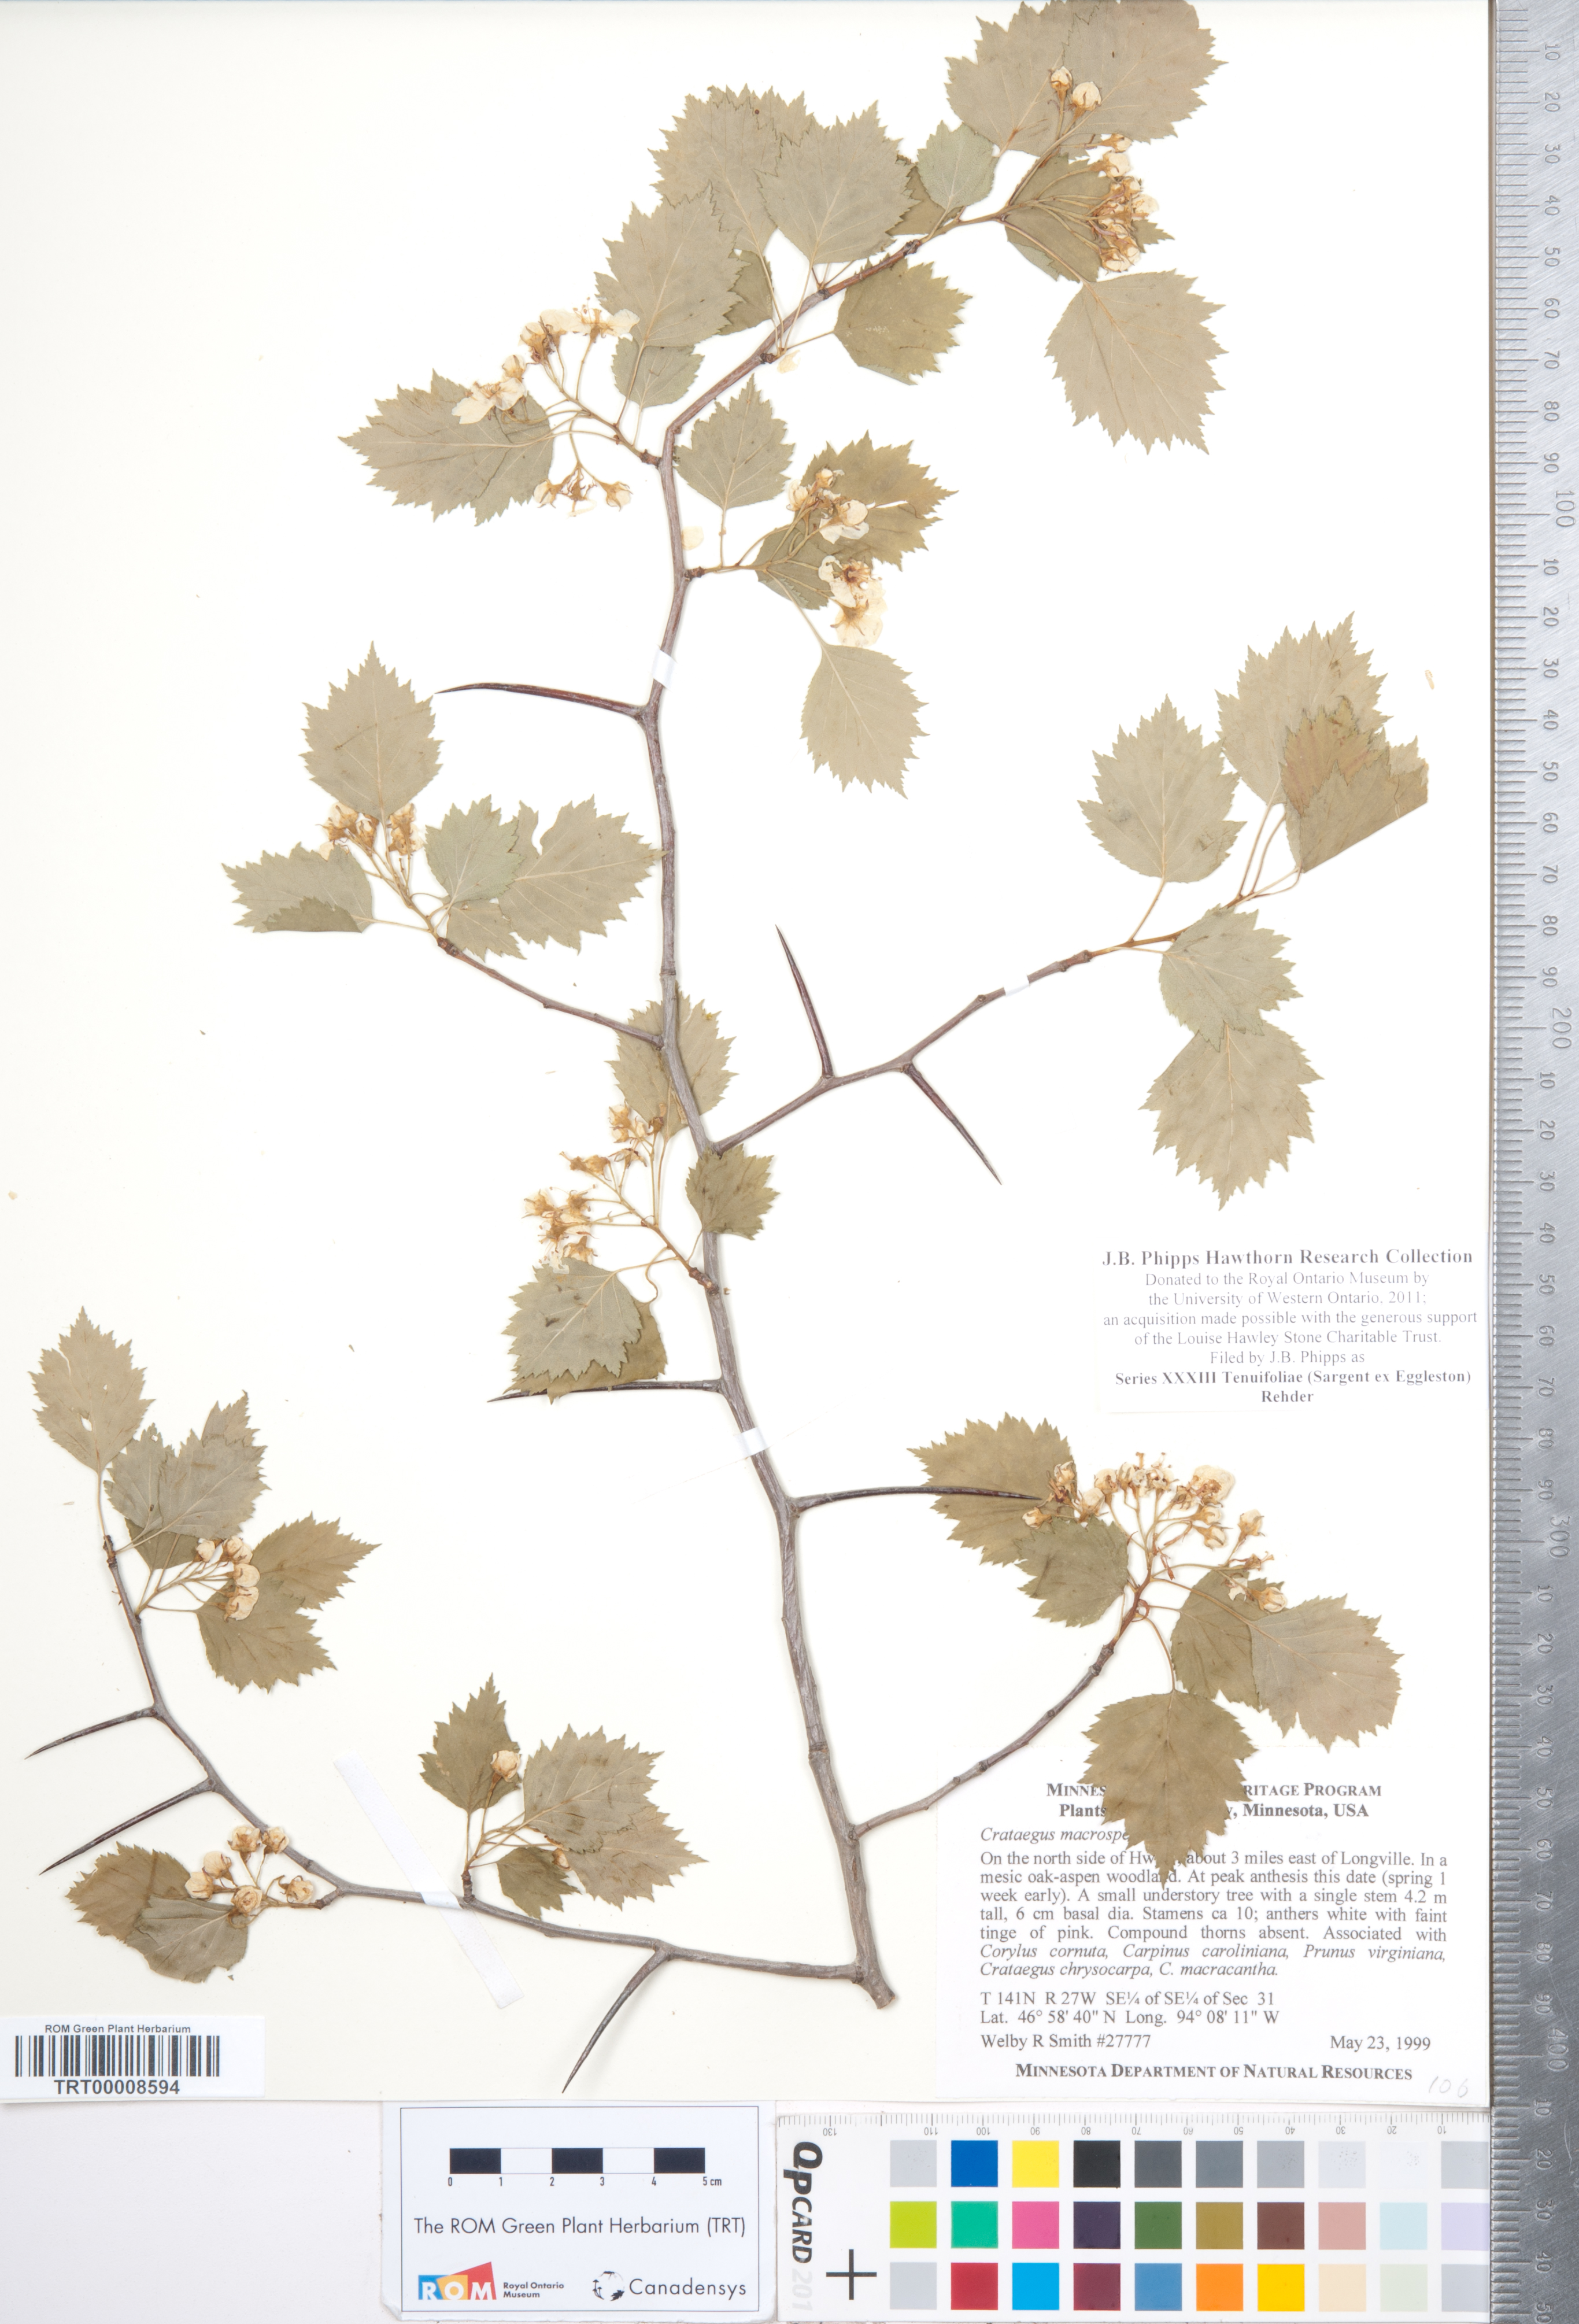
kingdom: Plantae
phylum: Tracheophyta
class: Magnoliopsida
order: Rosales
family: Rosaceae
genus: Crataegus
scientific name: Crataegus
